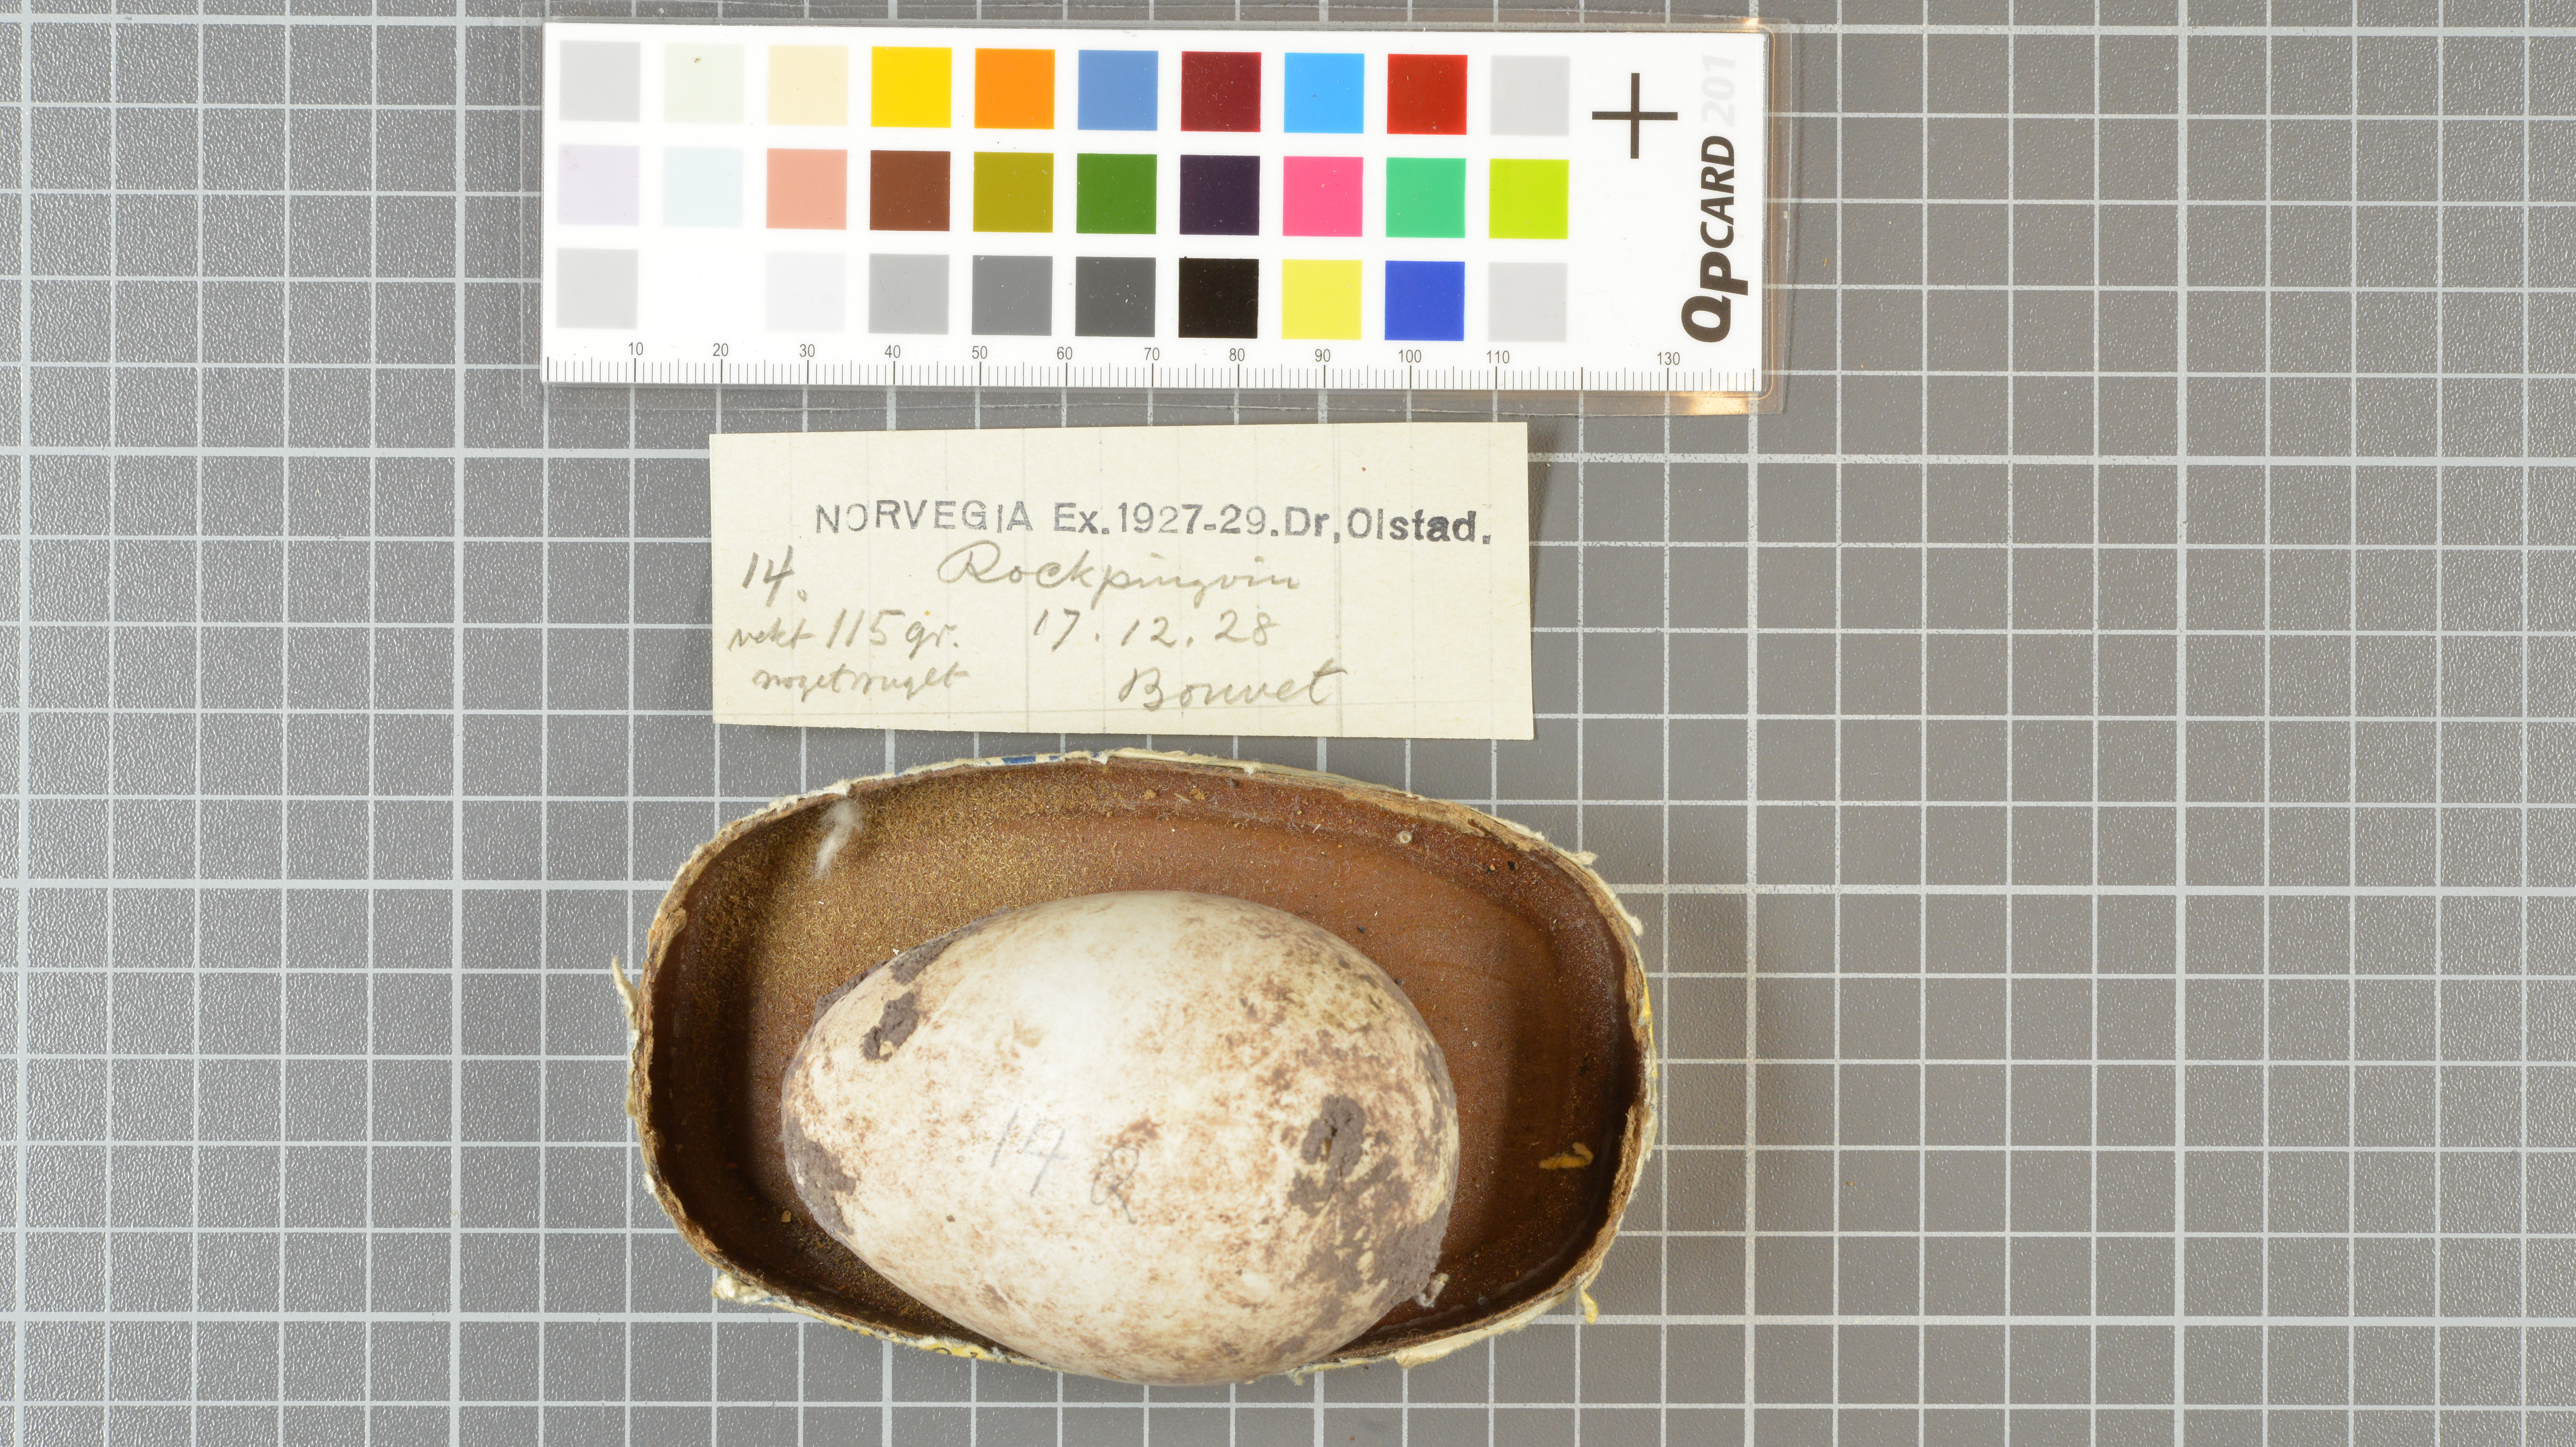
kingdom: Animalia
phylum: Chordata
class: Aves
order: Sphenisciformes
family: Spheniscidae
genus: Eudyptes
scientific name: Eudyptes chrysolophus
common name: Macaroni penguin
